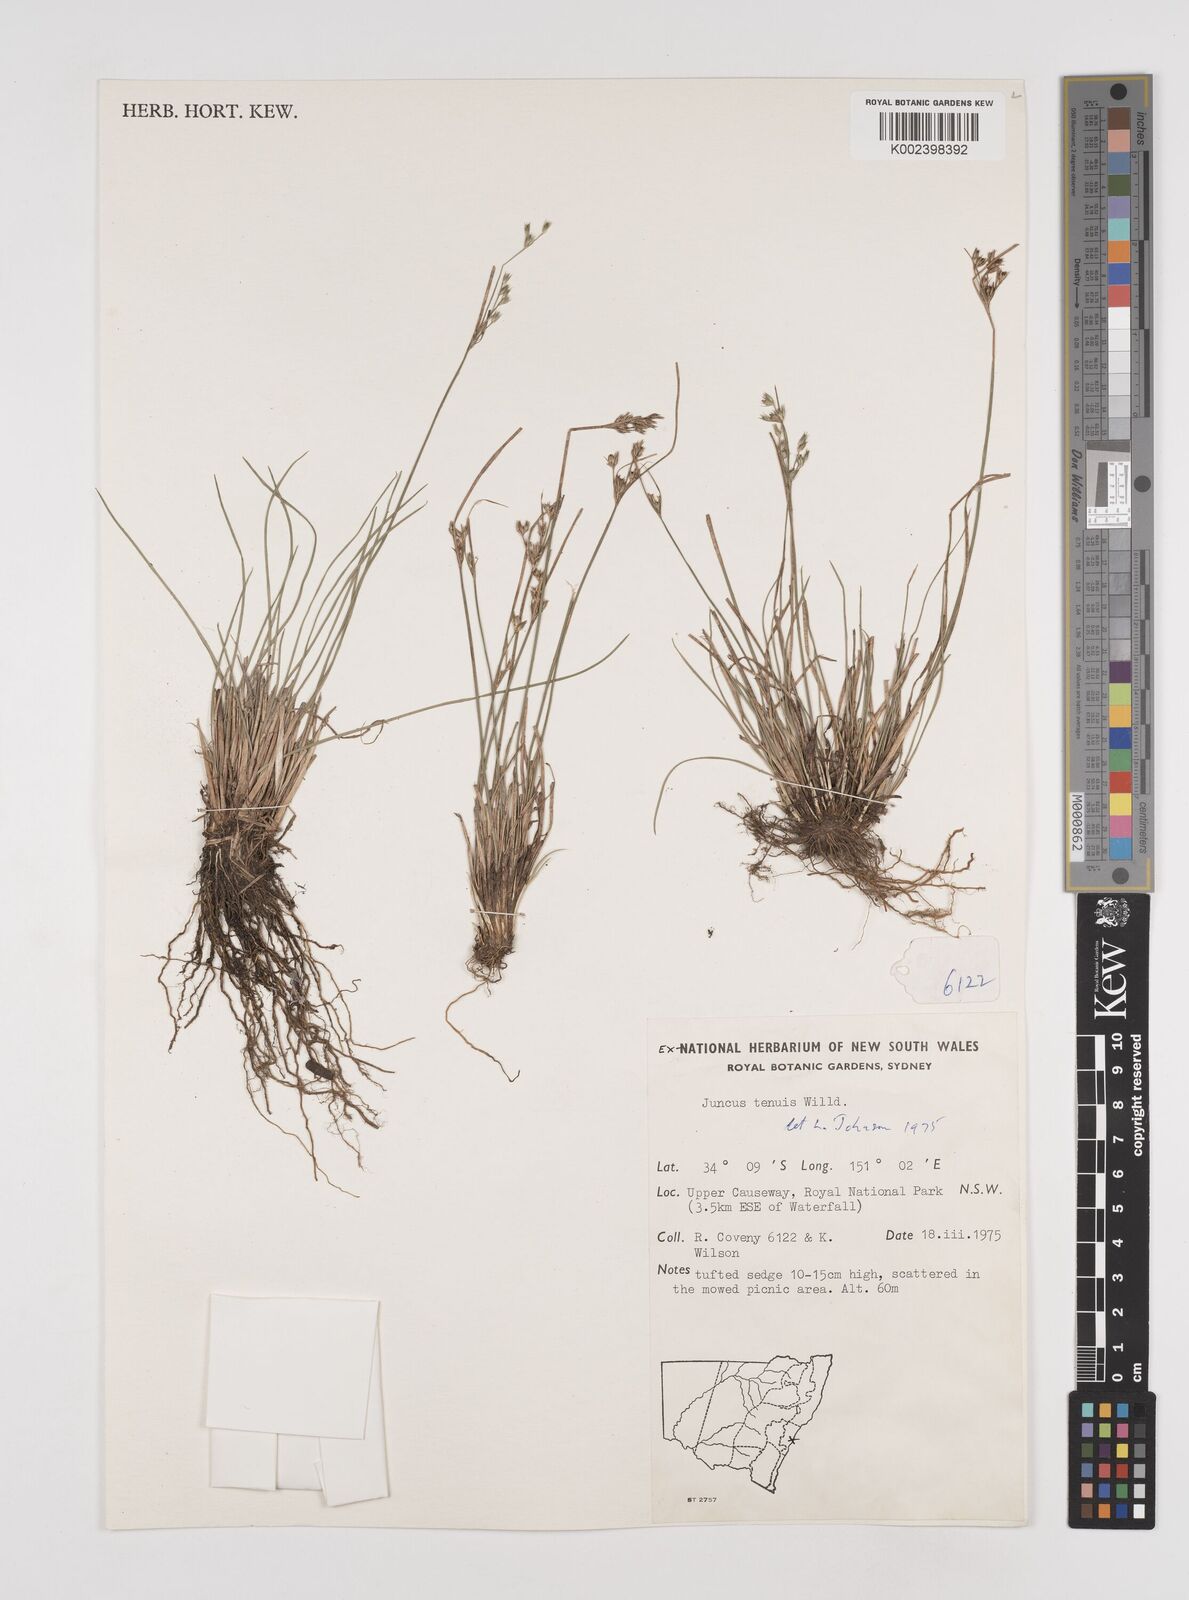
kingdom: Plantae
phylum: Tracheophyta
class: Liliopsida
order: Poales
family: Juncaceae
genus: Juncus
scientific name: Juncus tenuis
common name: Slender rush
